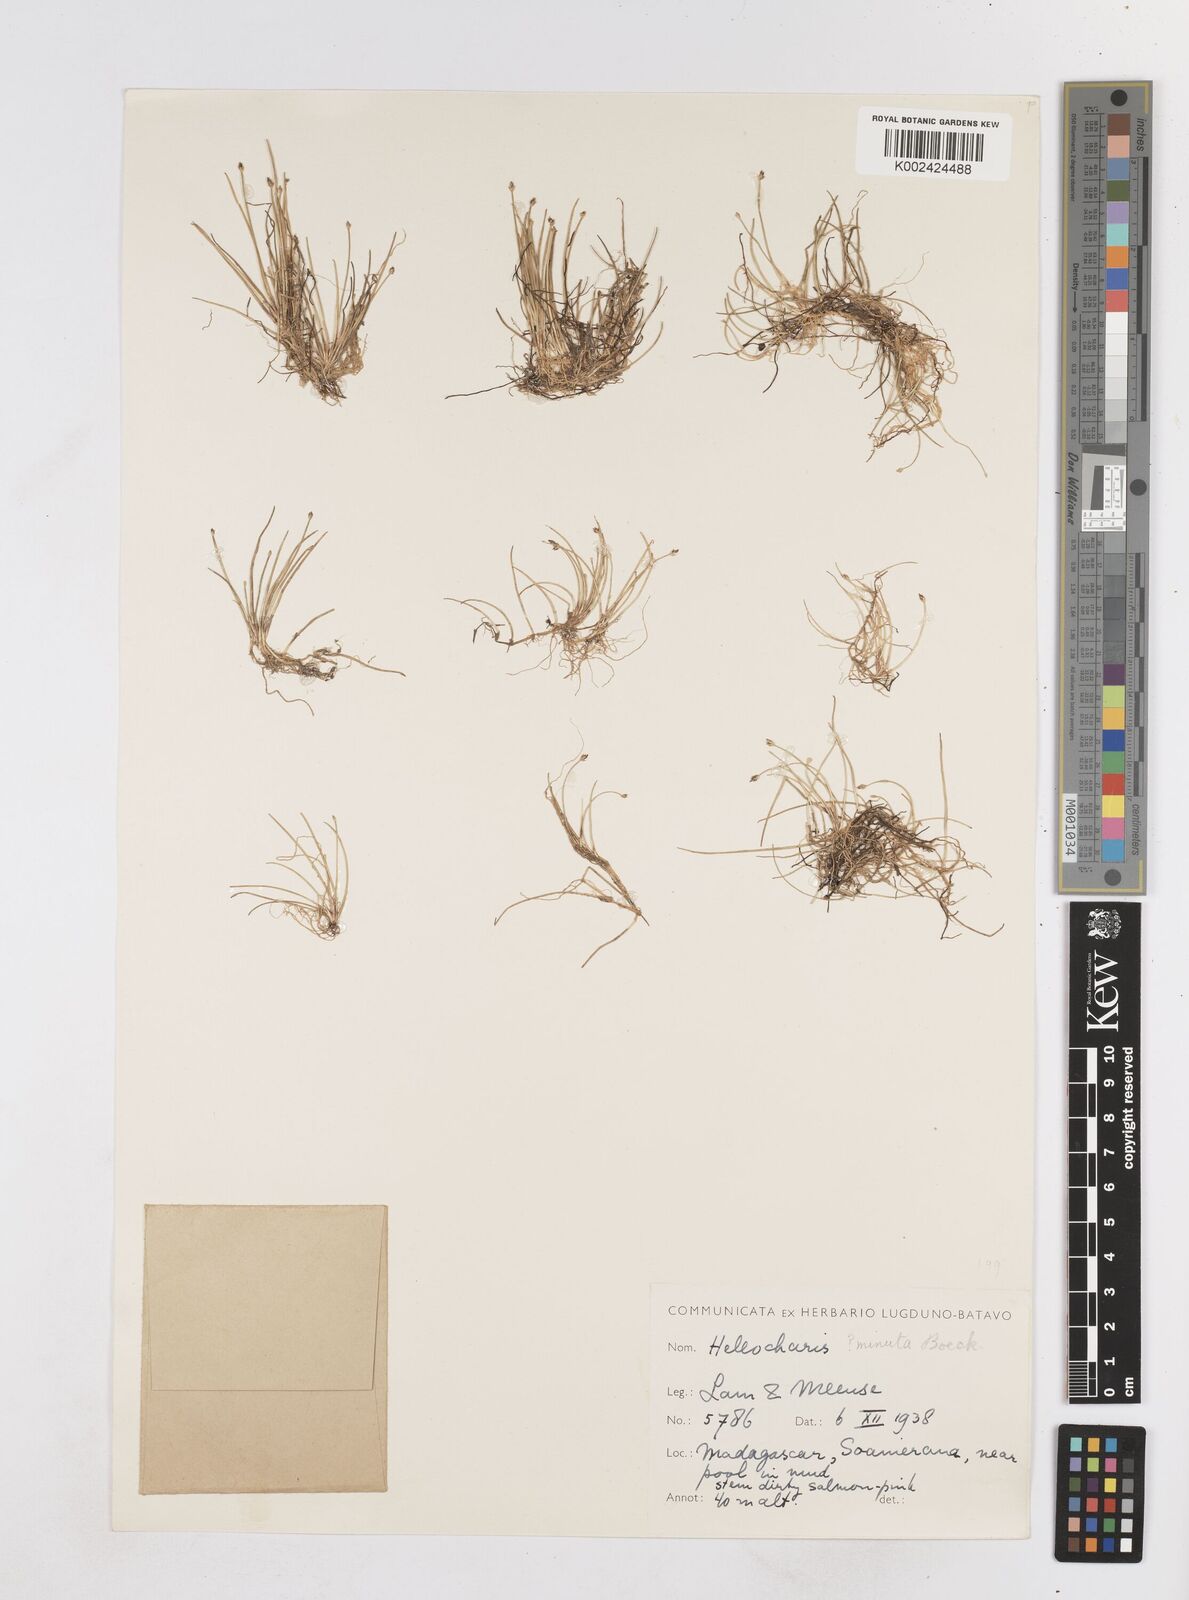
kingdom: Plantae
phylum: Tracheophyta
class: Liliopsida
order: Poales
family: Cyperaceae
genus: Eleocharis
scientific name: Eleocharis minuta
